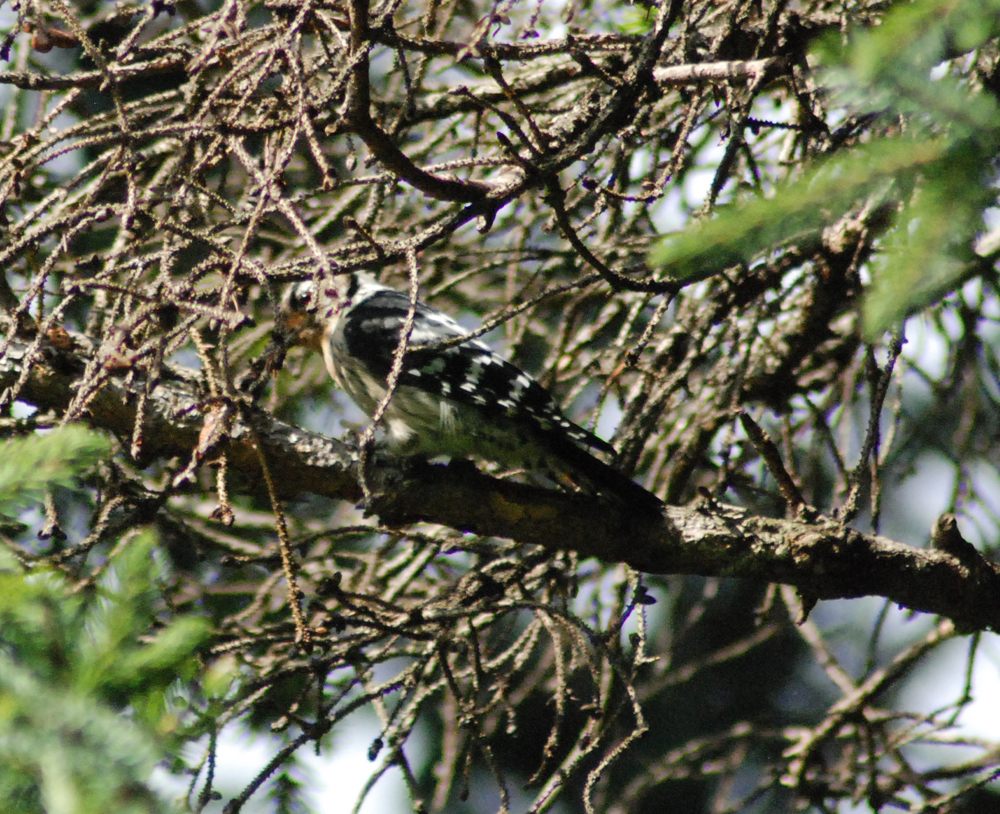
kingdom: Animalia
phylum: Chordata
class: Aves
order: Piciformes
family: Picidae
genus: Dryobates
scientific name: Dryobates minor
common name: Lesser spotted woodpecker
